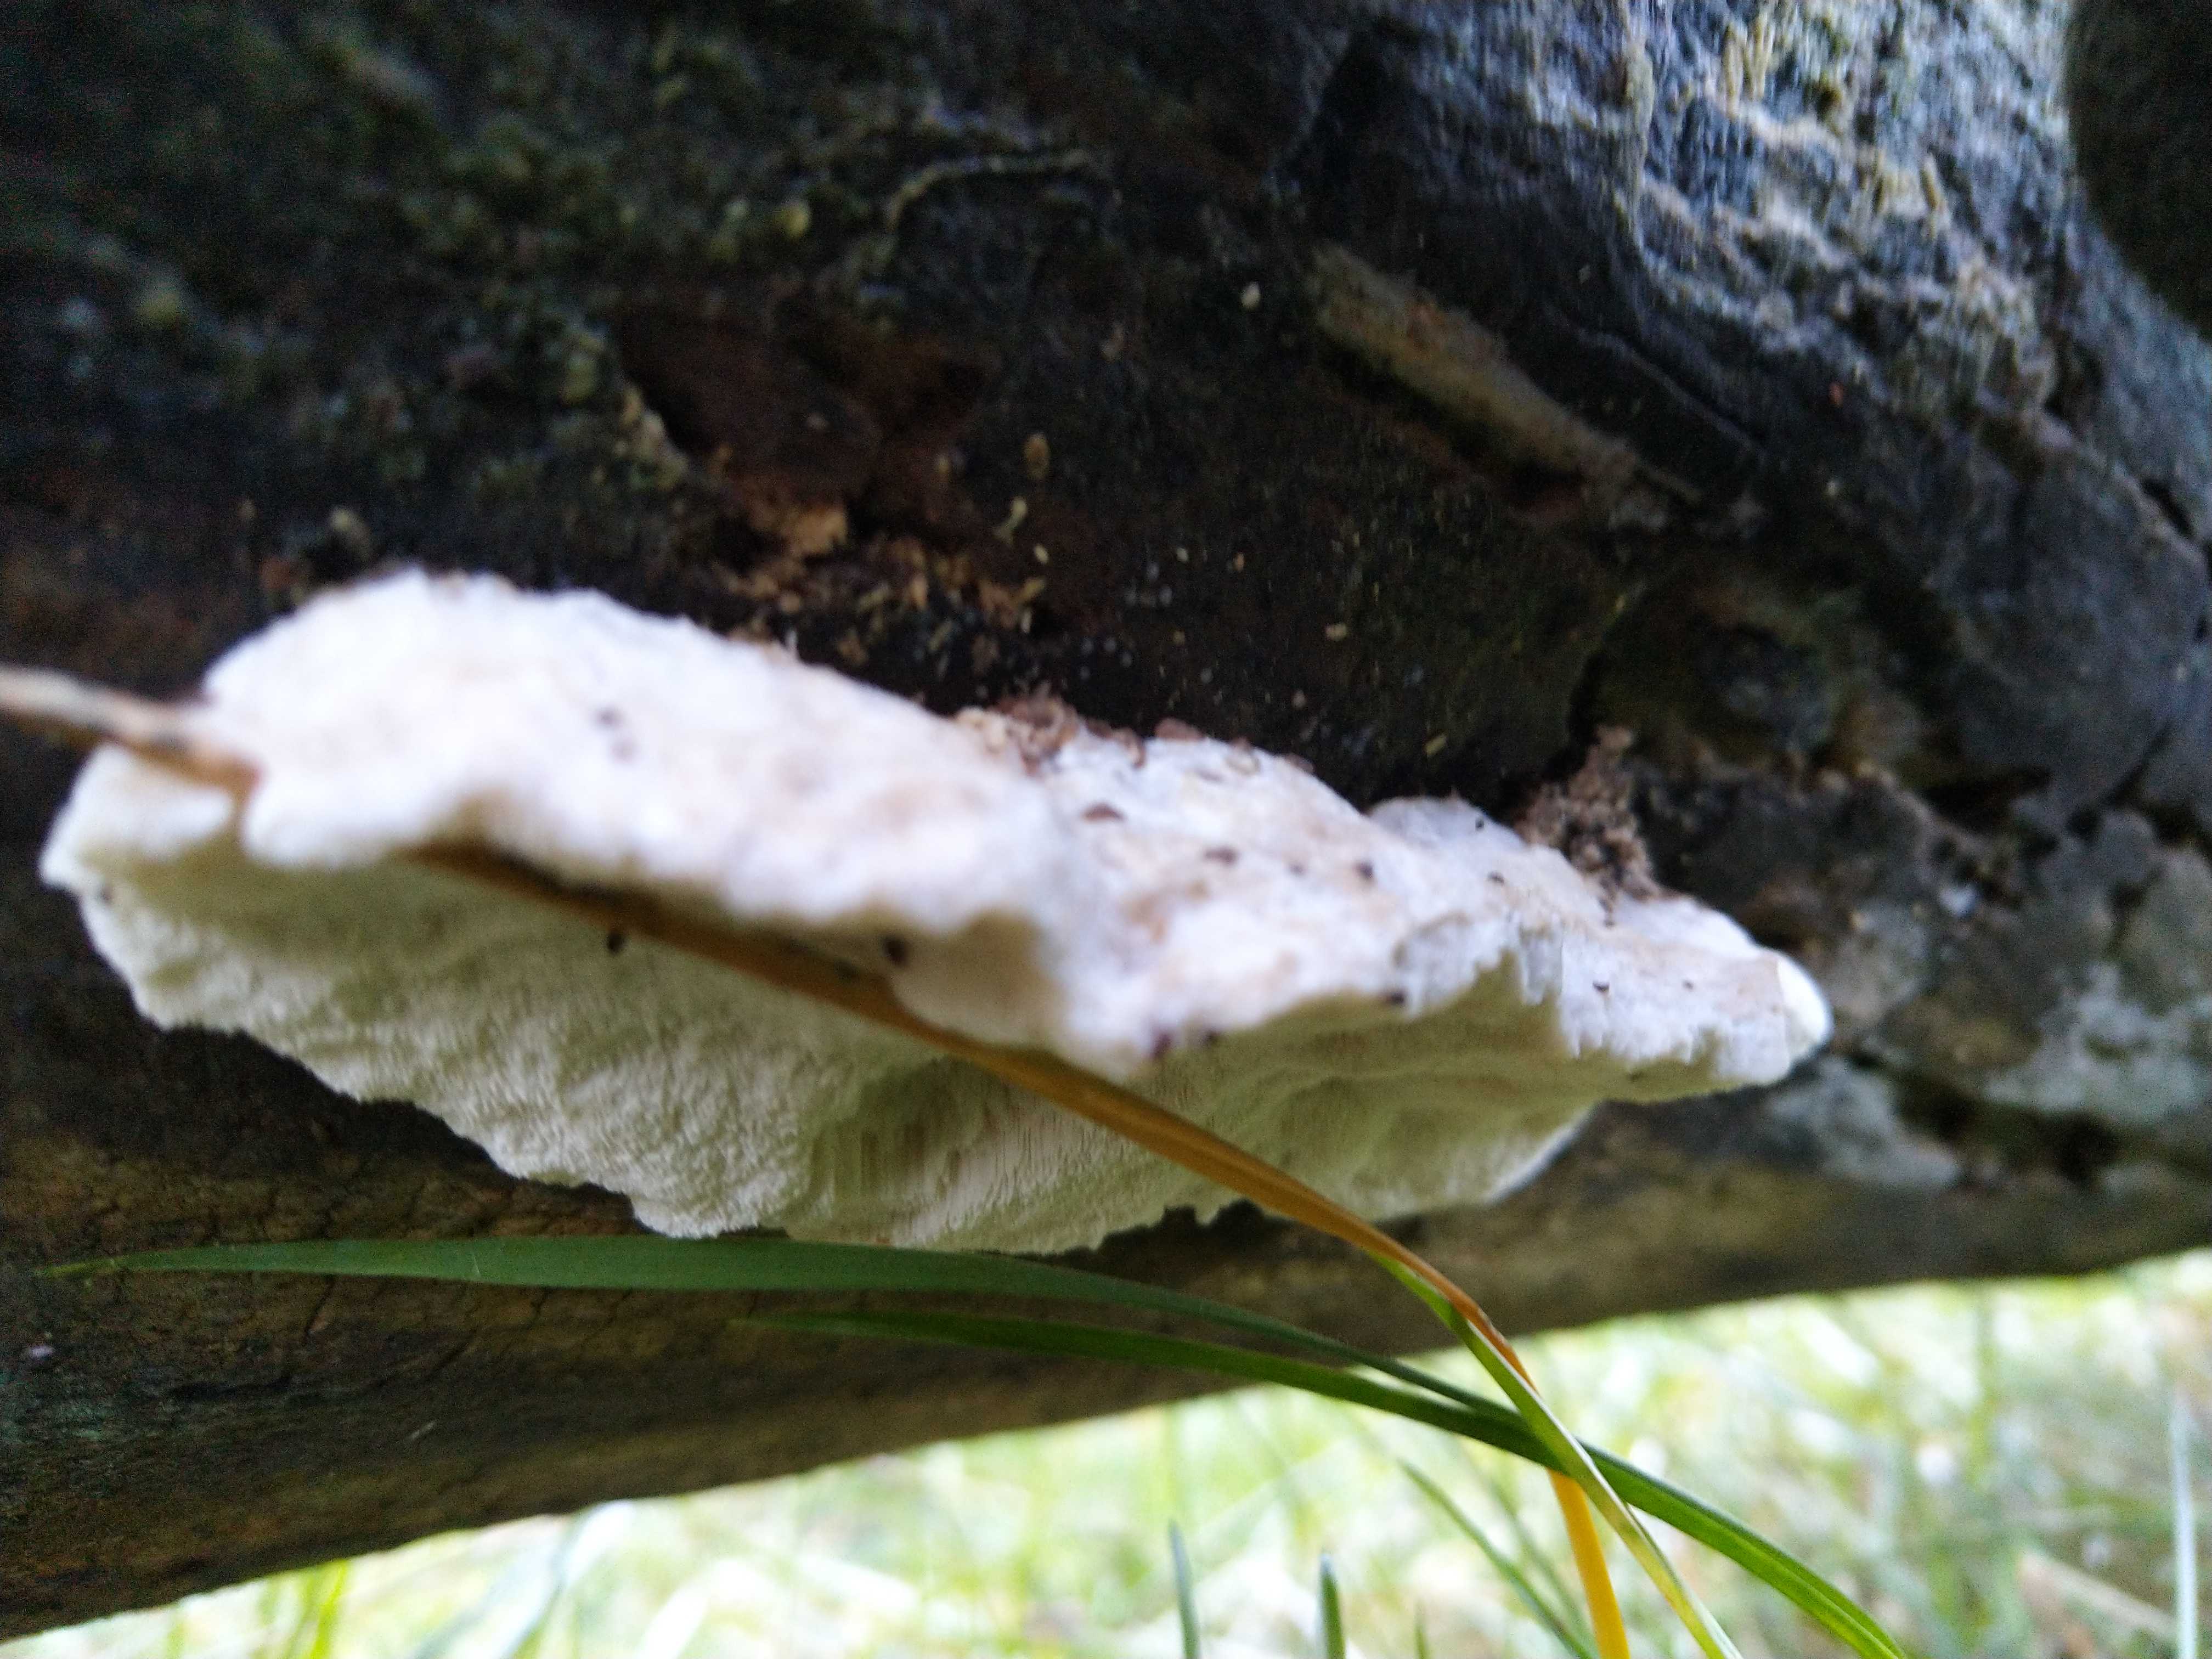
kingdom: Fungi
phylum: Basidiomycota
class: Agaricomycetes
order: Polyporales
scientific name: Polyporales
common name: poresvampordenen
